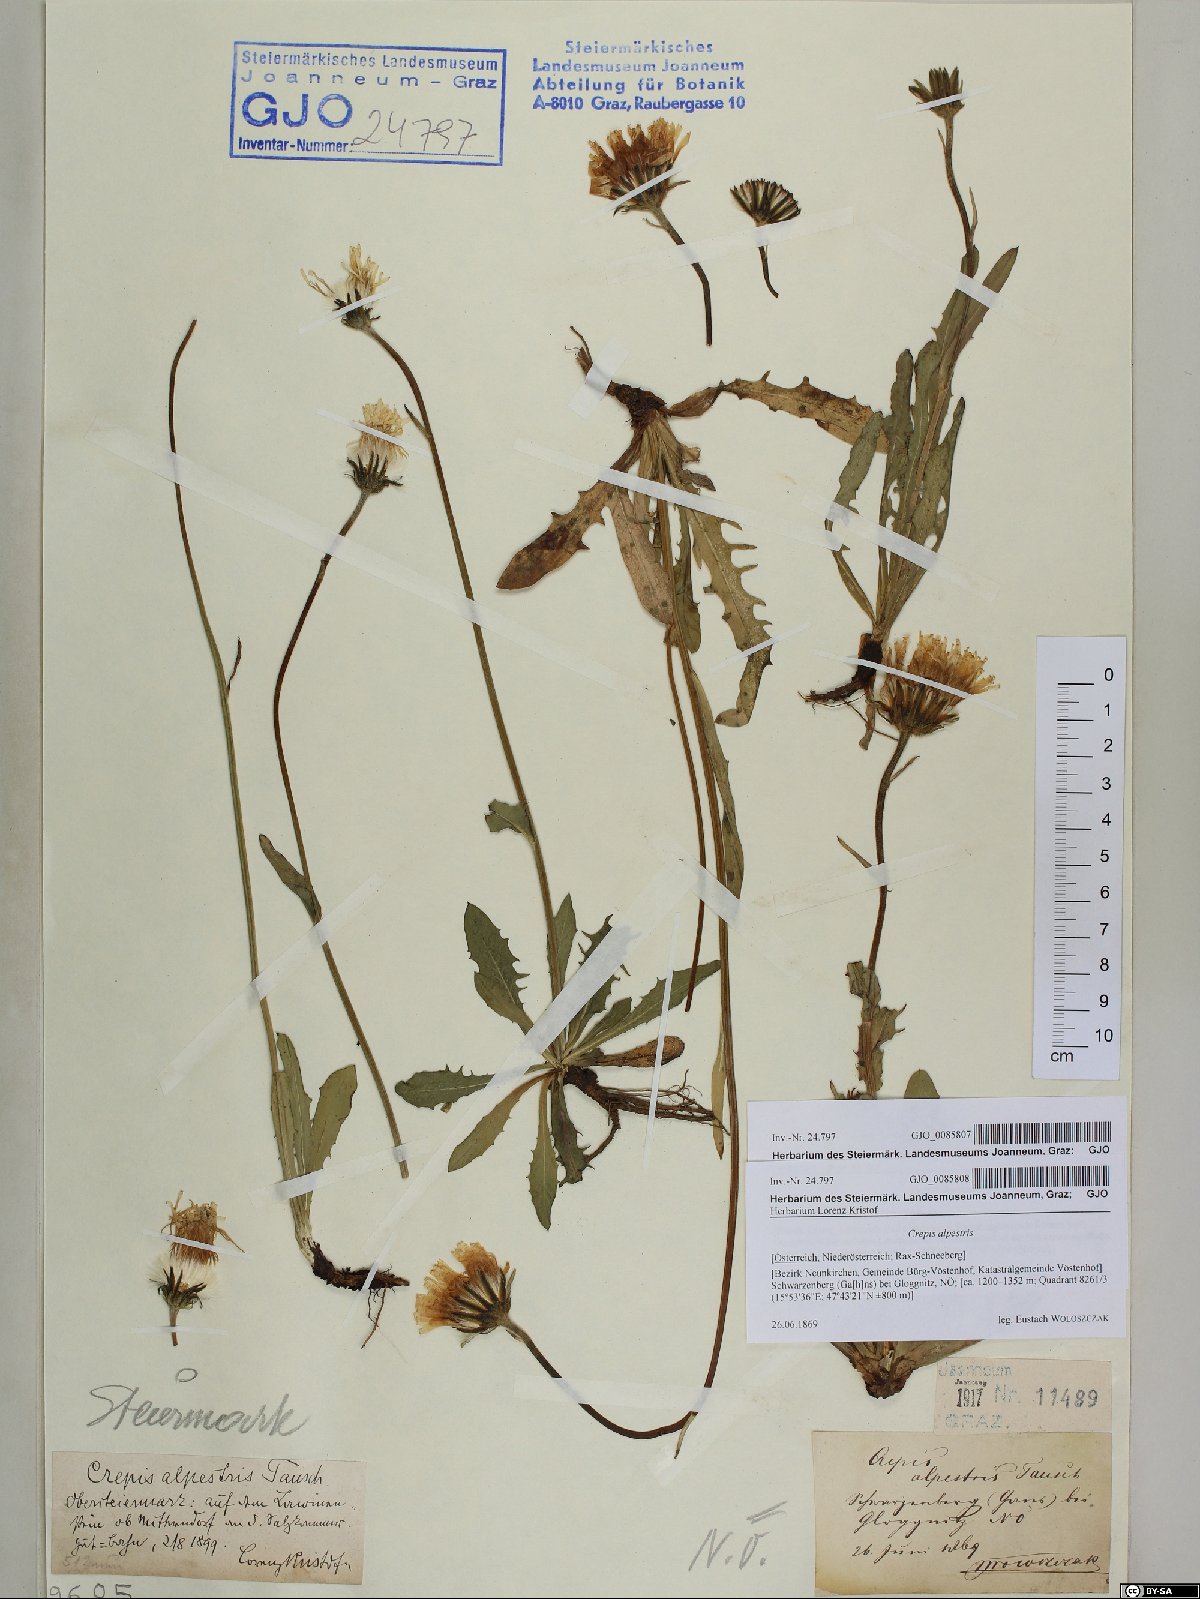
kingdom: Plantae
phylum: Tracheophyta
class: Magnoliopsida
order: Asterales
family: Asteraceae
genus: Crepis
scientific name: Crepis alpestris
